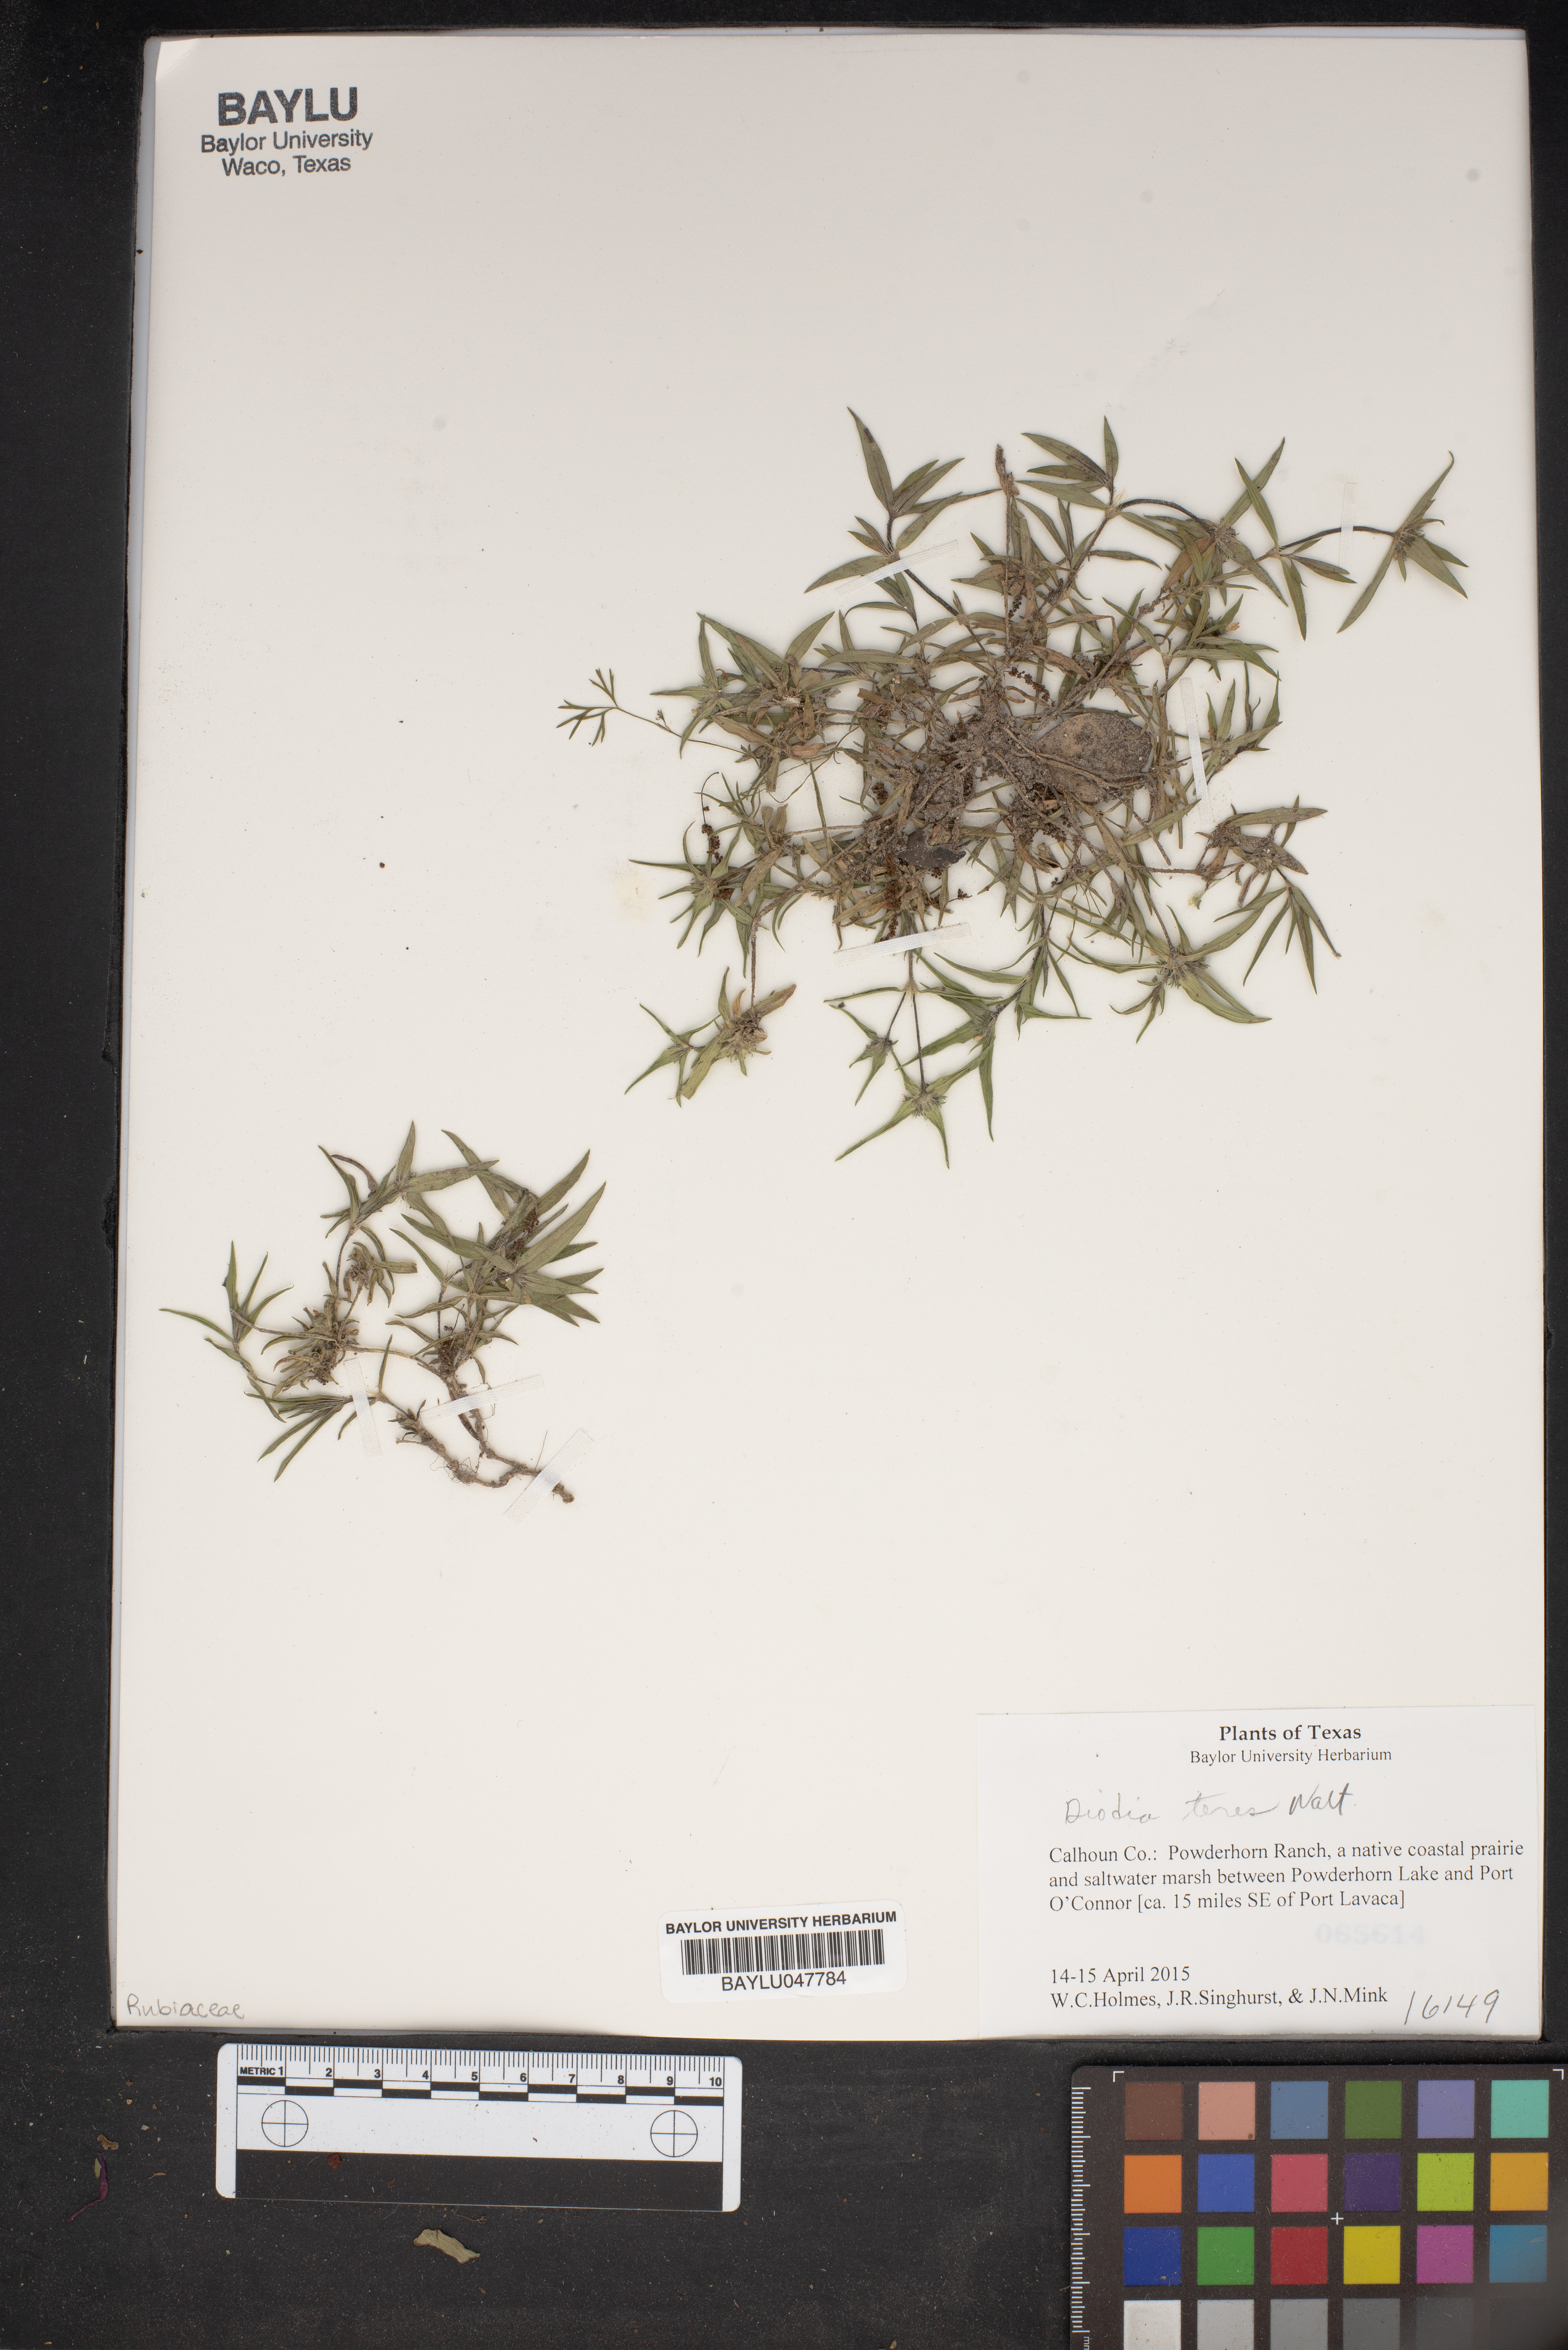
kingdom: Plantae
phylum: Tracheophyta
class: Magnoliopsida
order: Gentianales
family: Rubiaceae
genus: Hexasepalum
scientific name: Hexasepalum teres
